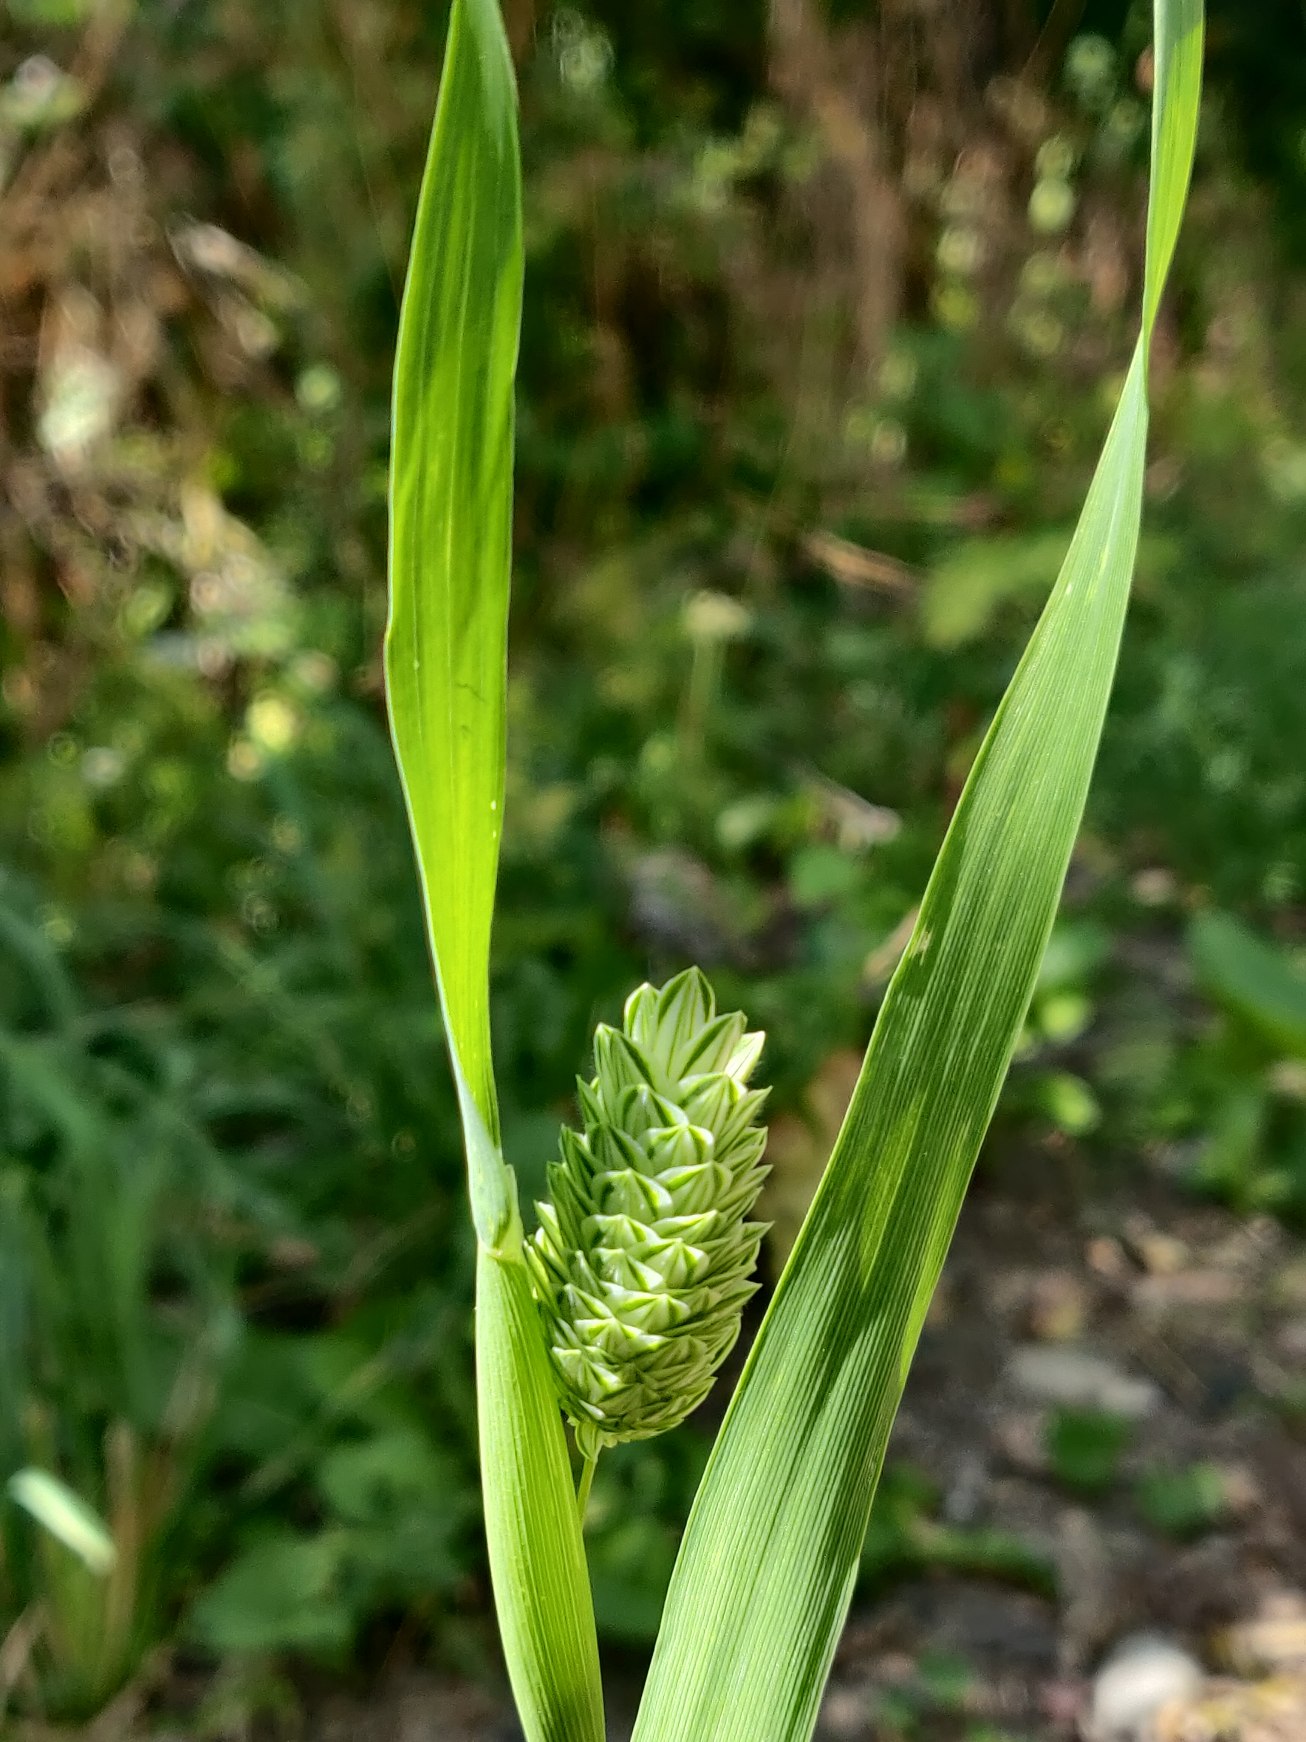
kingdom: Plantae
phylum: Tracheophyta
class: Liliopsida
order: Poales
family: Poaceae
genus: Phalaris
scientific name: Phalaris canariensis
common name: Kanariegræs
